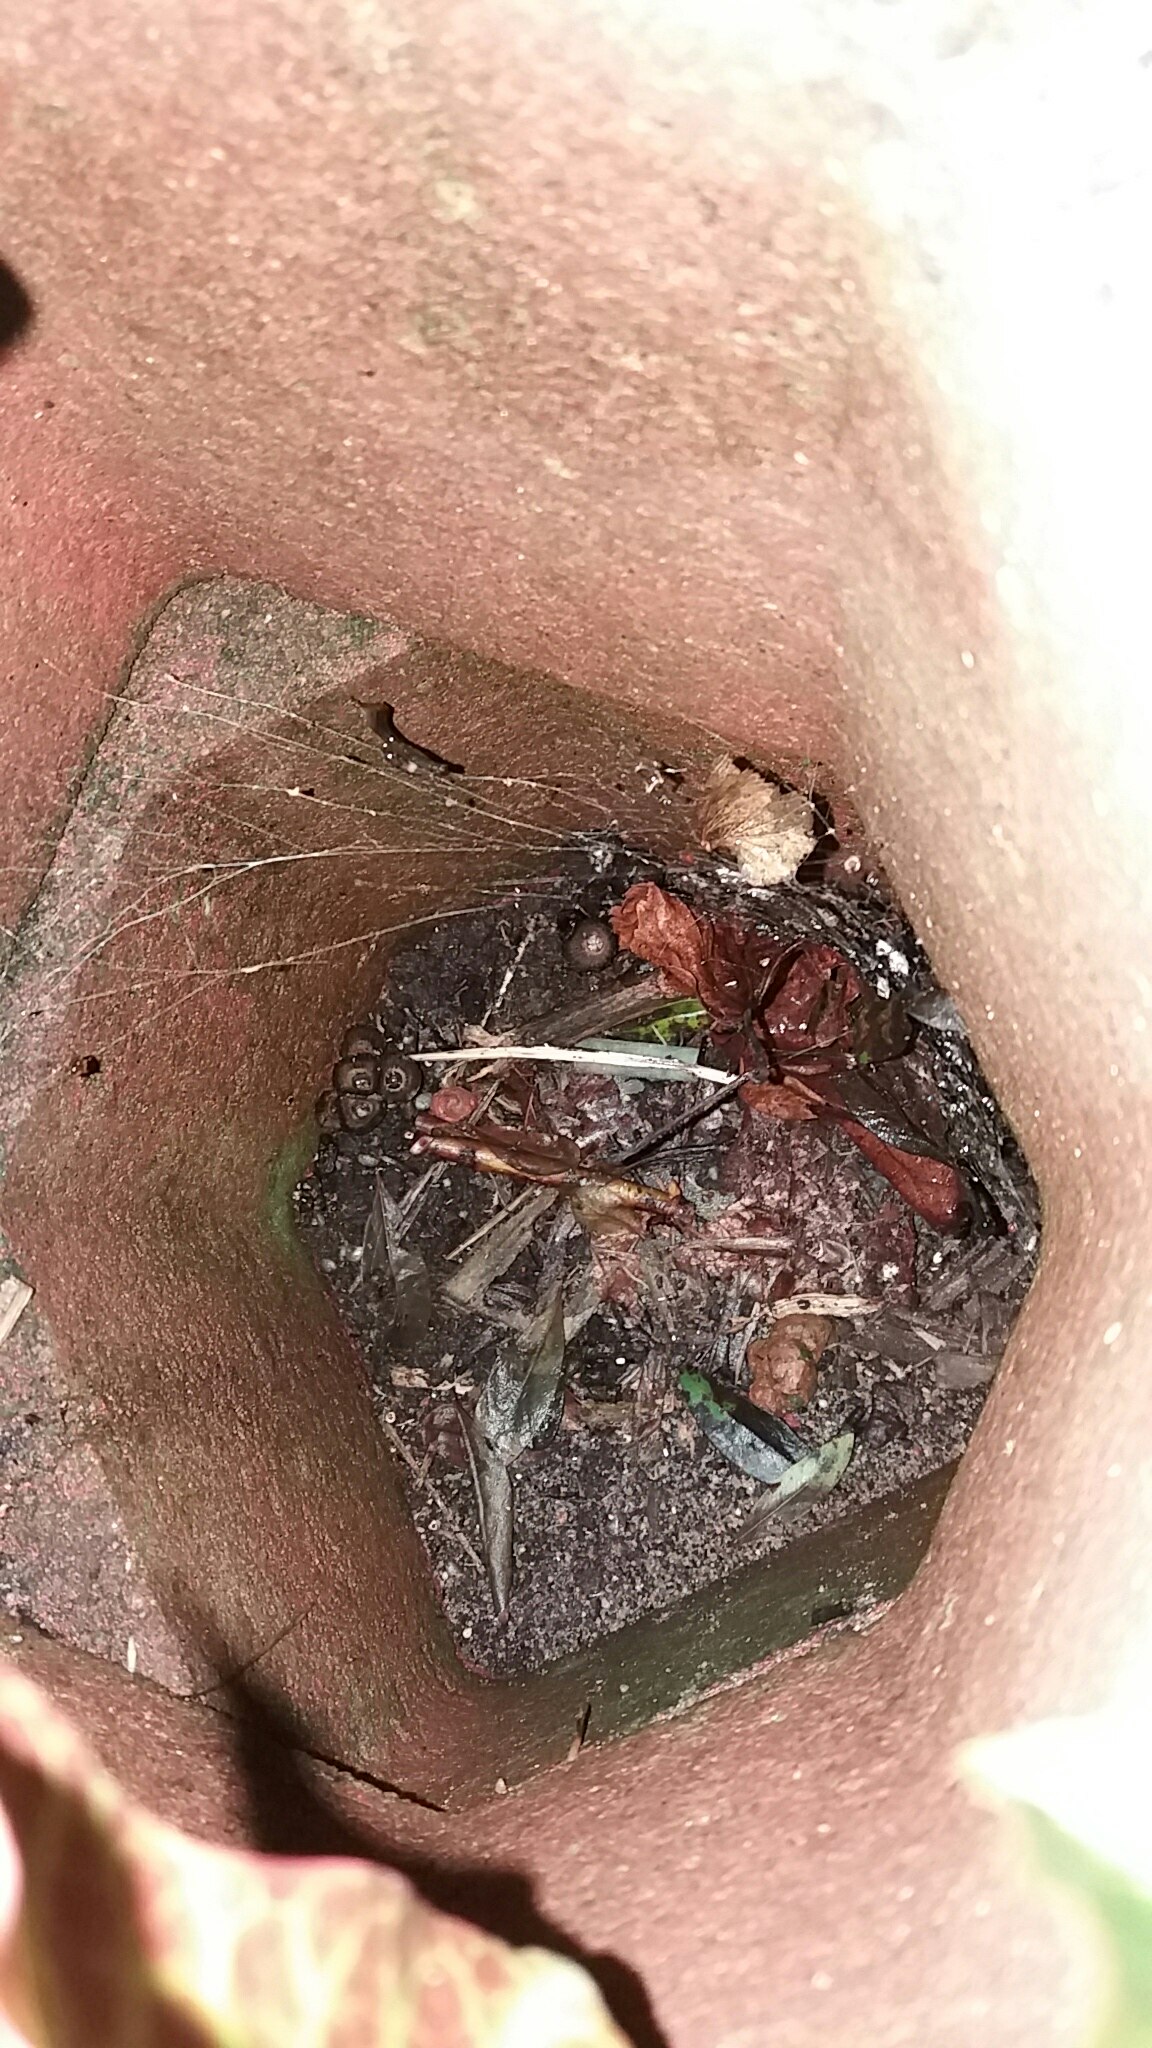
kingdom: Fungi
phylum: Basidiomycota
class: Agaricomycetes
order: Agaricales
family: Agaricaceae
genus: Cyathus
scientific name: Cyathus striatus
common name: stribet redesvamp
